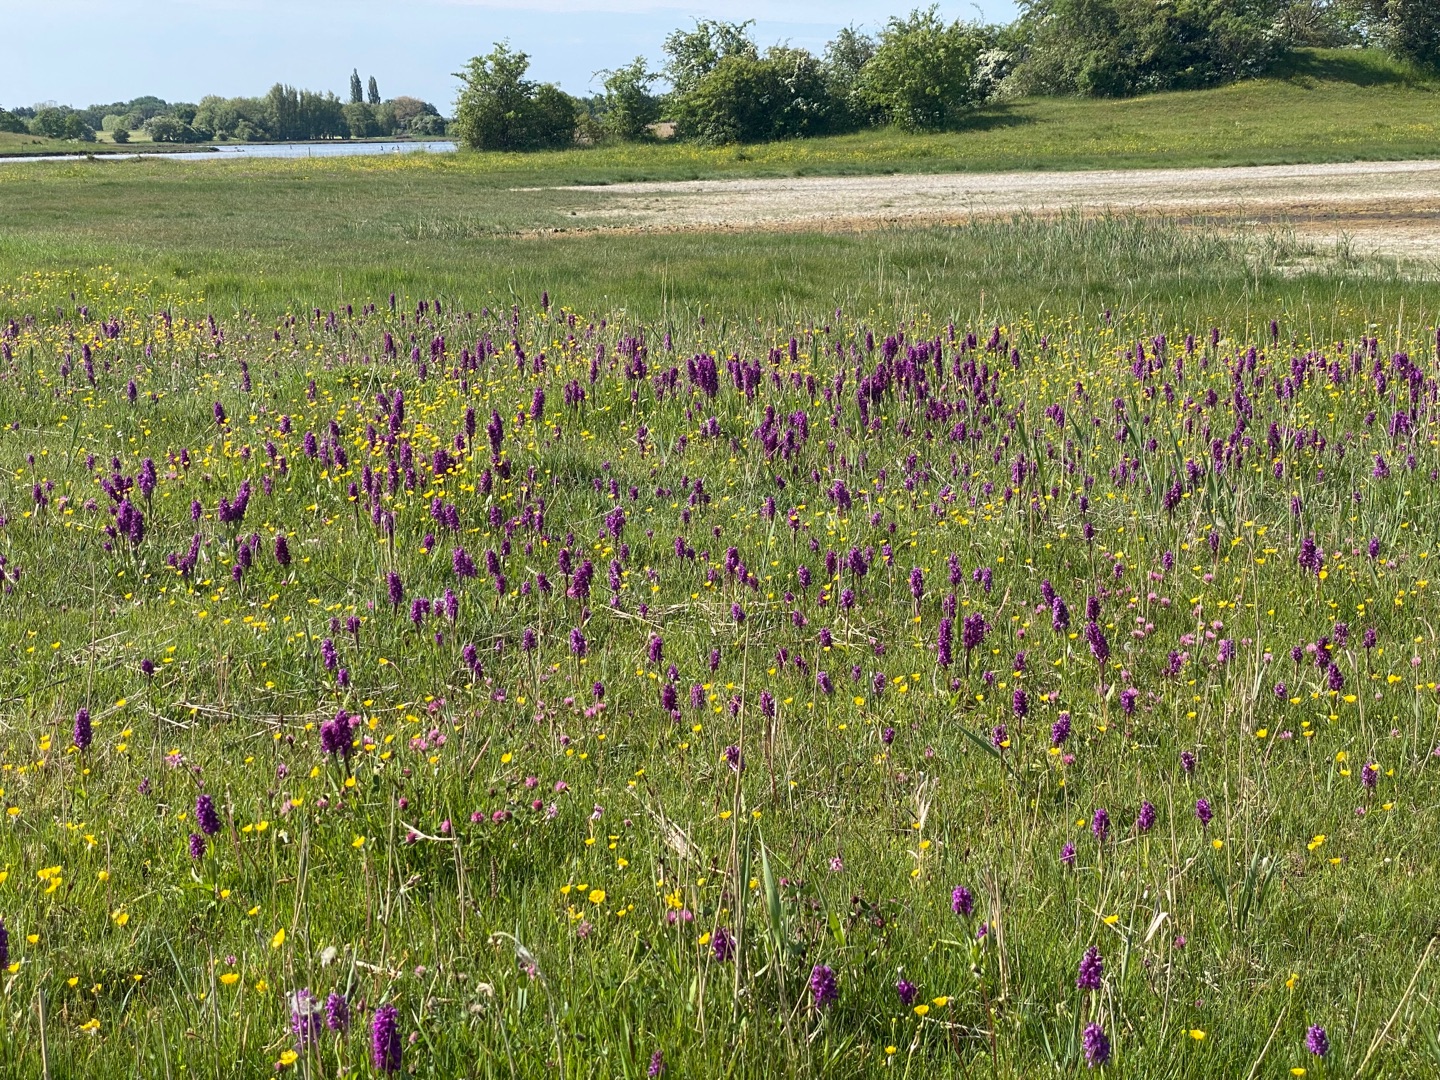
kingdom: Plantae
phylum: Tracheophyta
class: Liliopsida
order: Asparagales
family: Orchidaceae
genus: Dactylorhiza
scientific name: Dactylorhiza majalis
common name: Maj-gøgeurt
